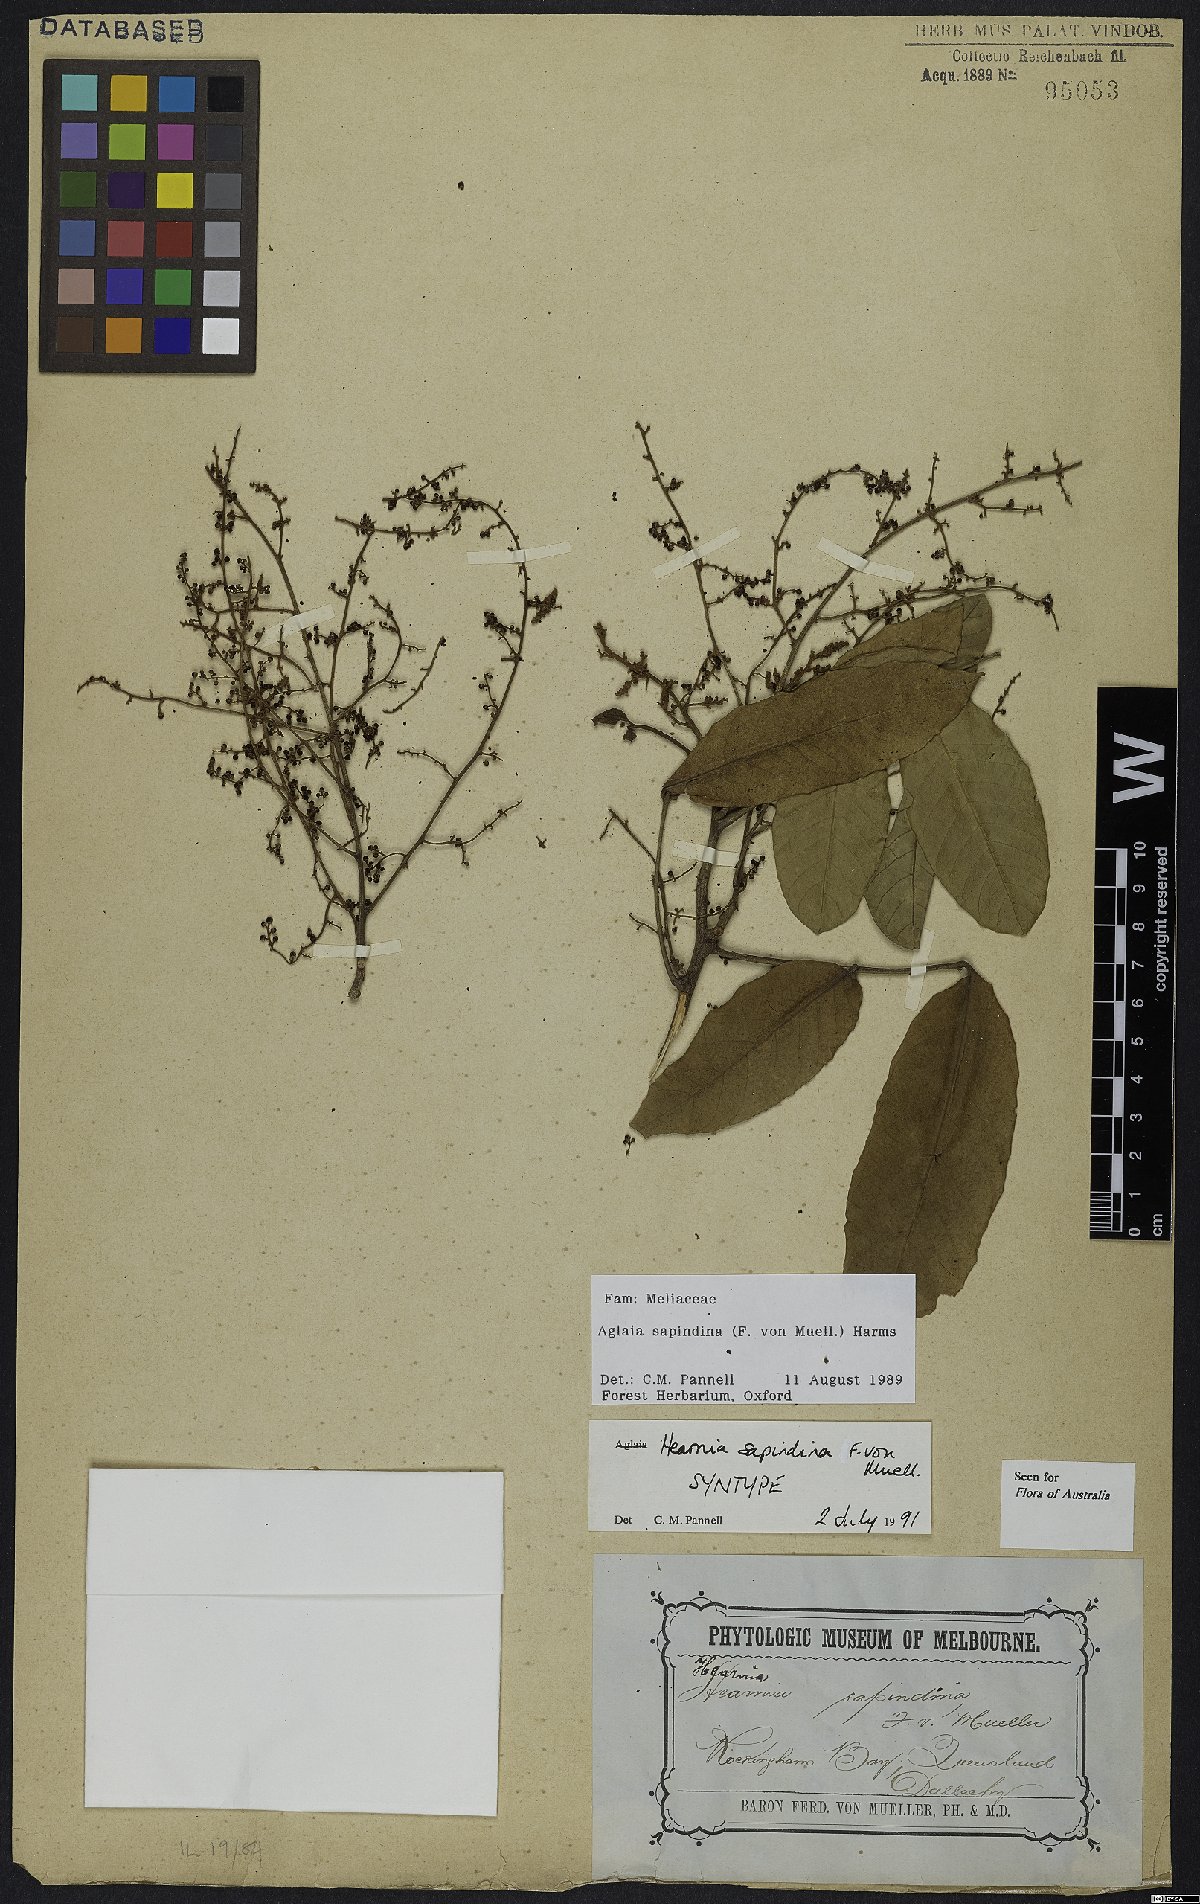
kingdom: Plantae
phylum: Tracheophyta
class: Magnoliopsida
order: Sapindales
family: Meliaceae
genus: Aglaia
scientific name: Aglaia sapindina
